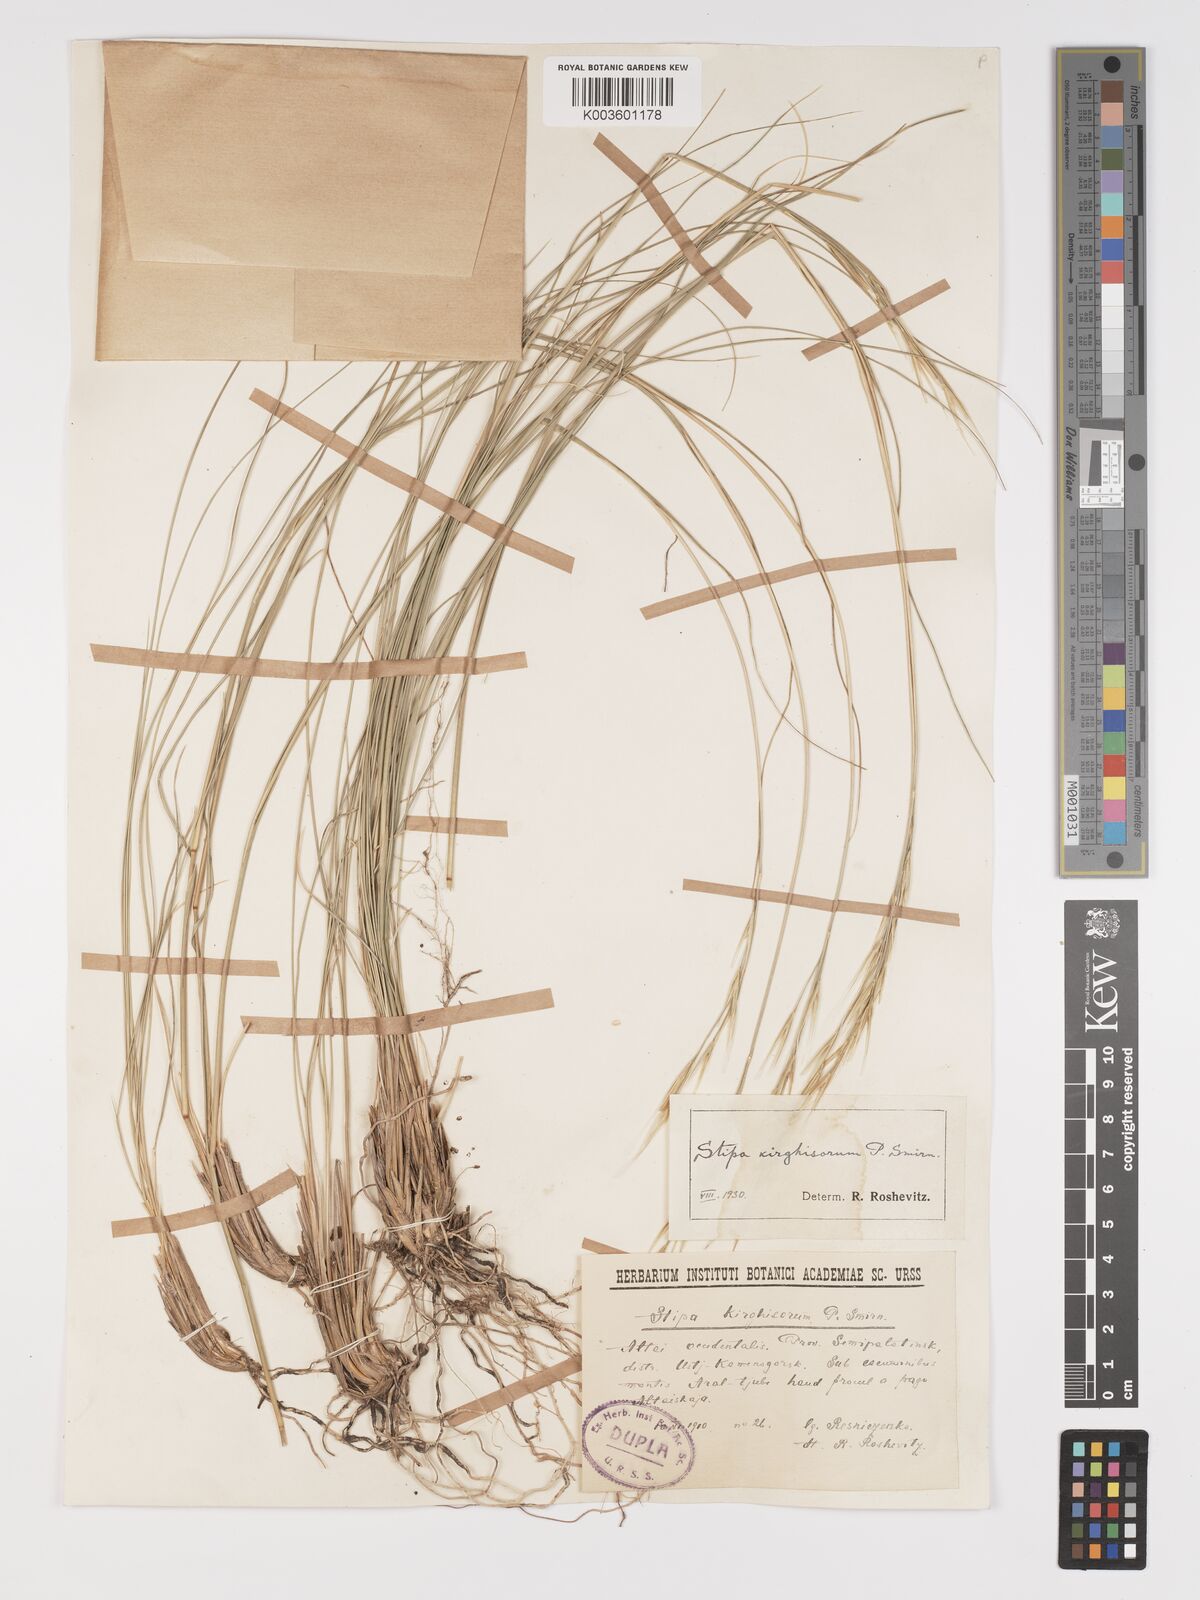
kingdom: Plantae
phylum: Tracheophyta
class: Liliopsida
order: Poales
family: Poaceae
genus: Stipa
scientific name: Stipa kirghisorum
